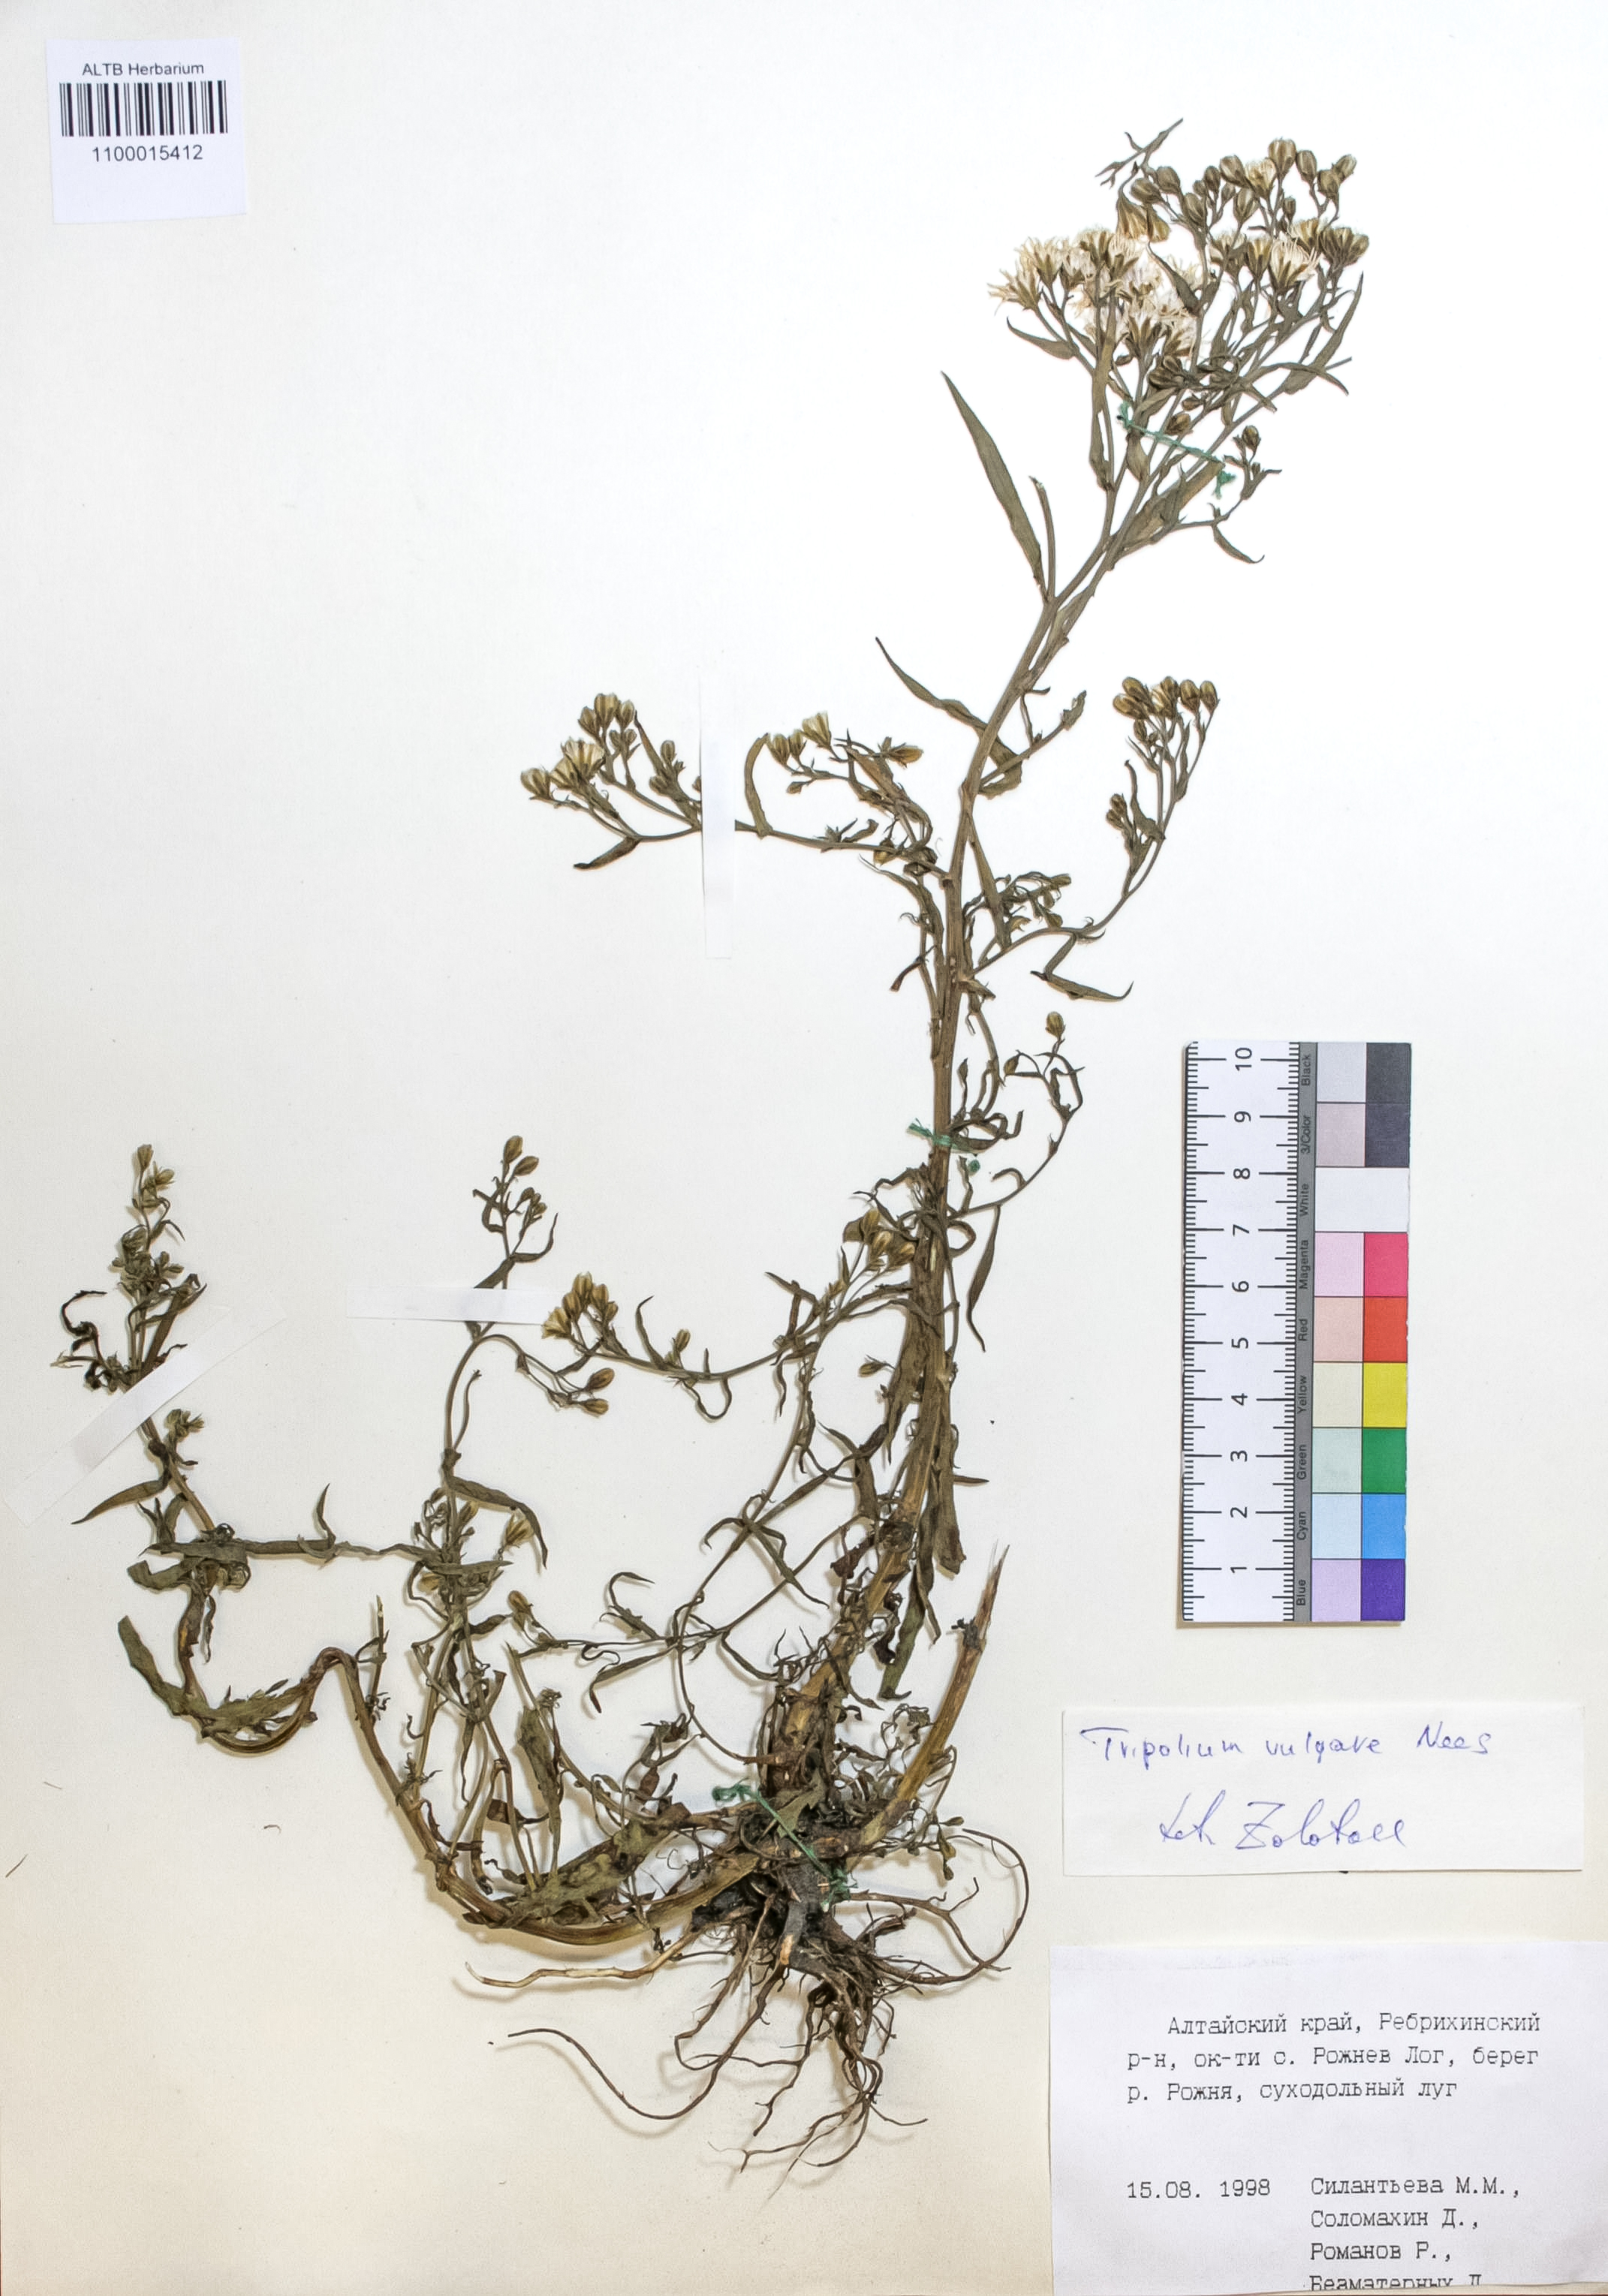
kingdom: Plantae
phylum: Tracheophyta
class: Magnoliopsida
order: Asterales
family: Asteraceae
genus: Tripolium
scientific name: Tripolium pannonicum
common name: Sea aster
